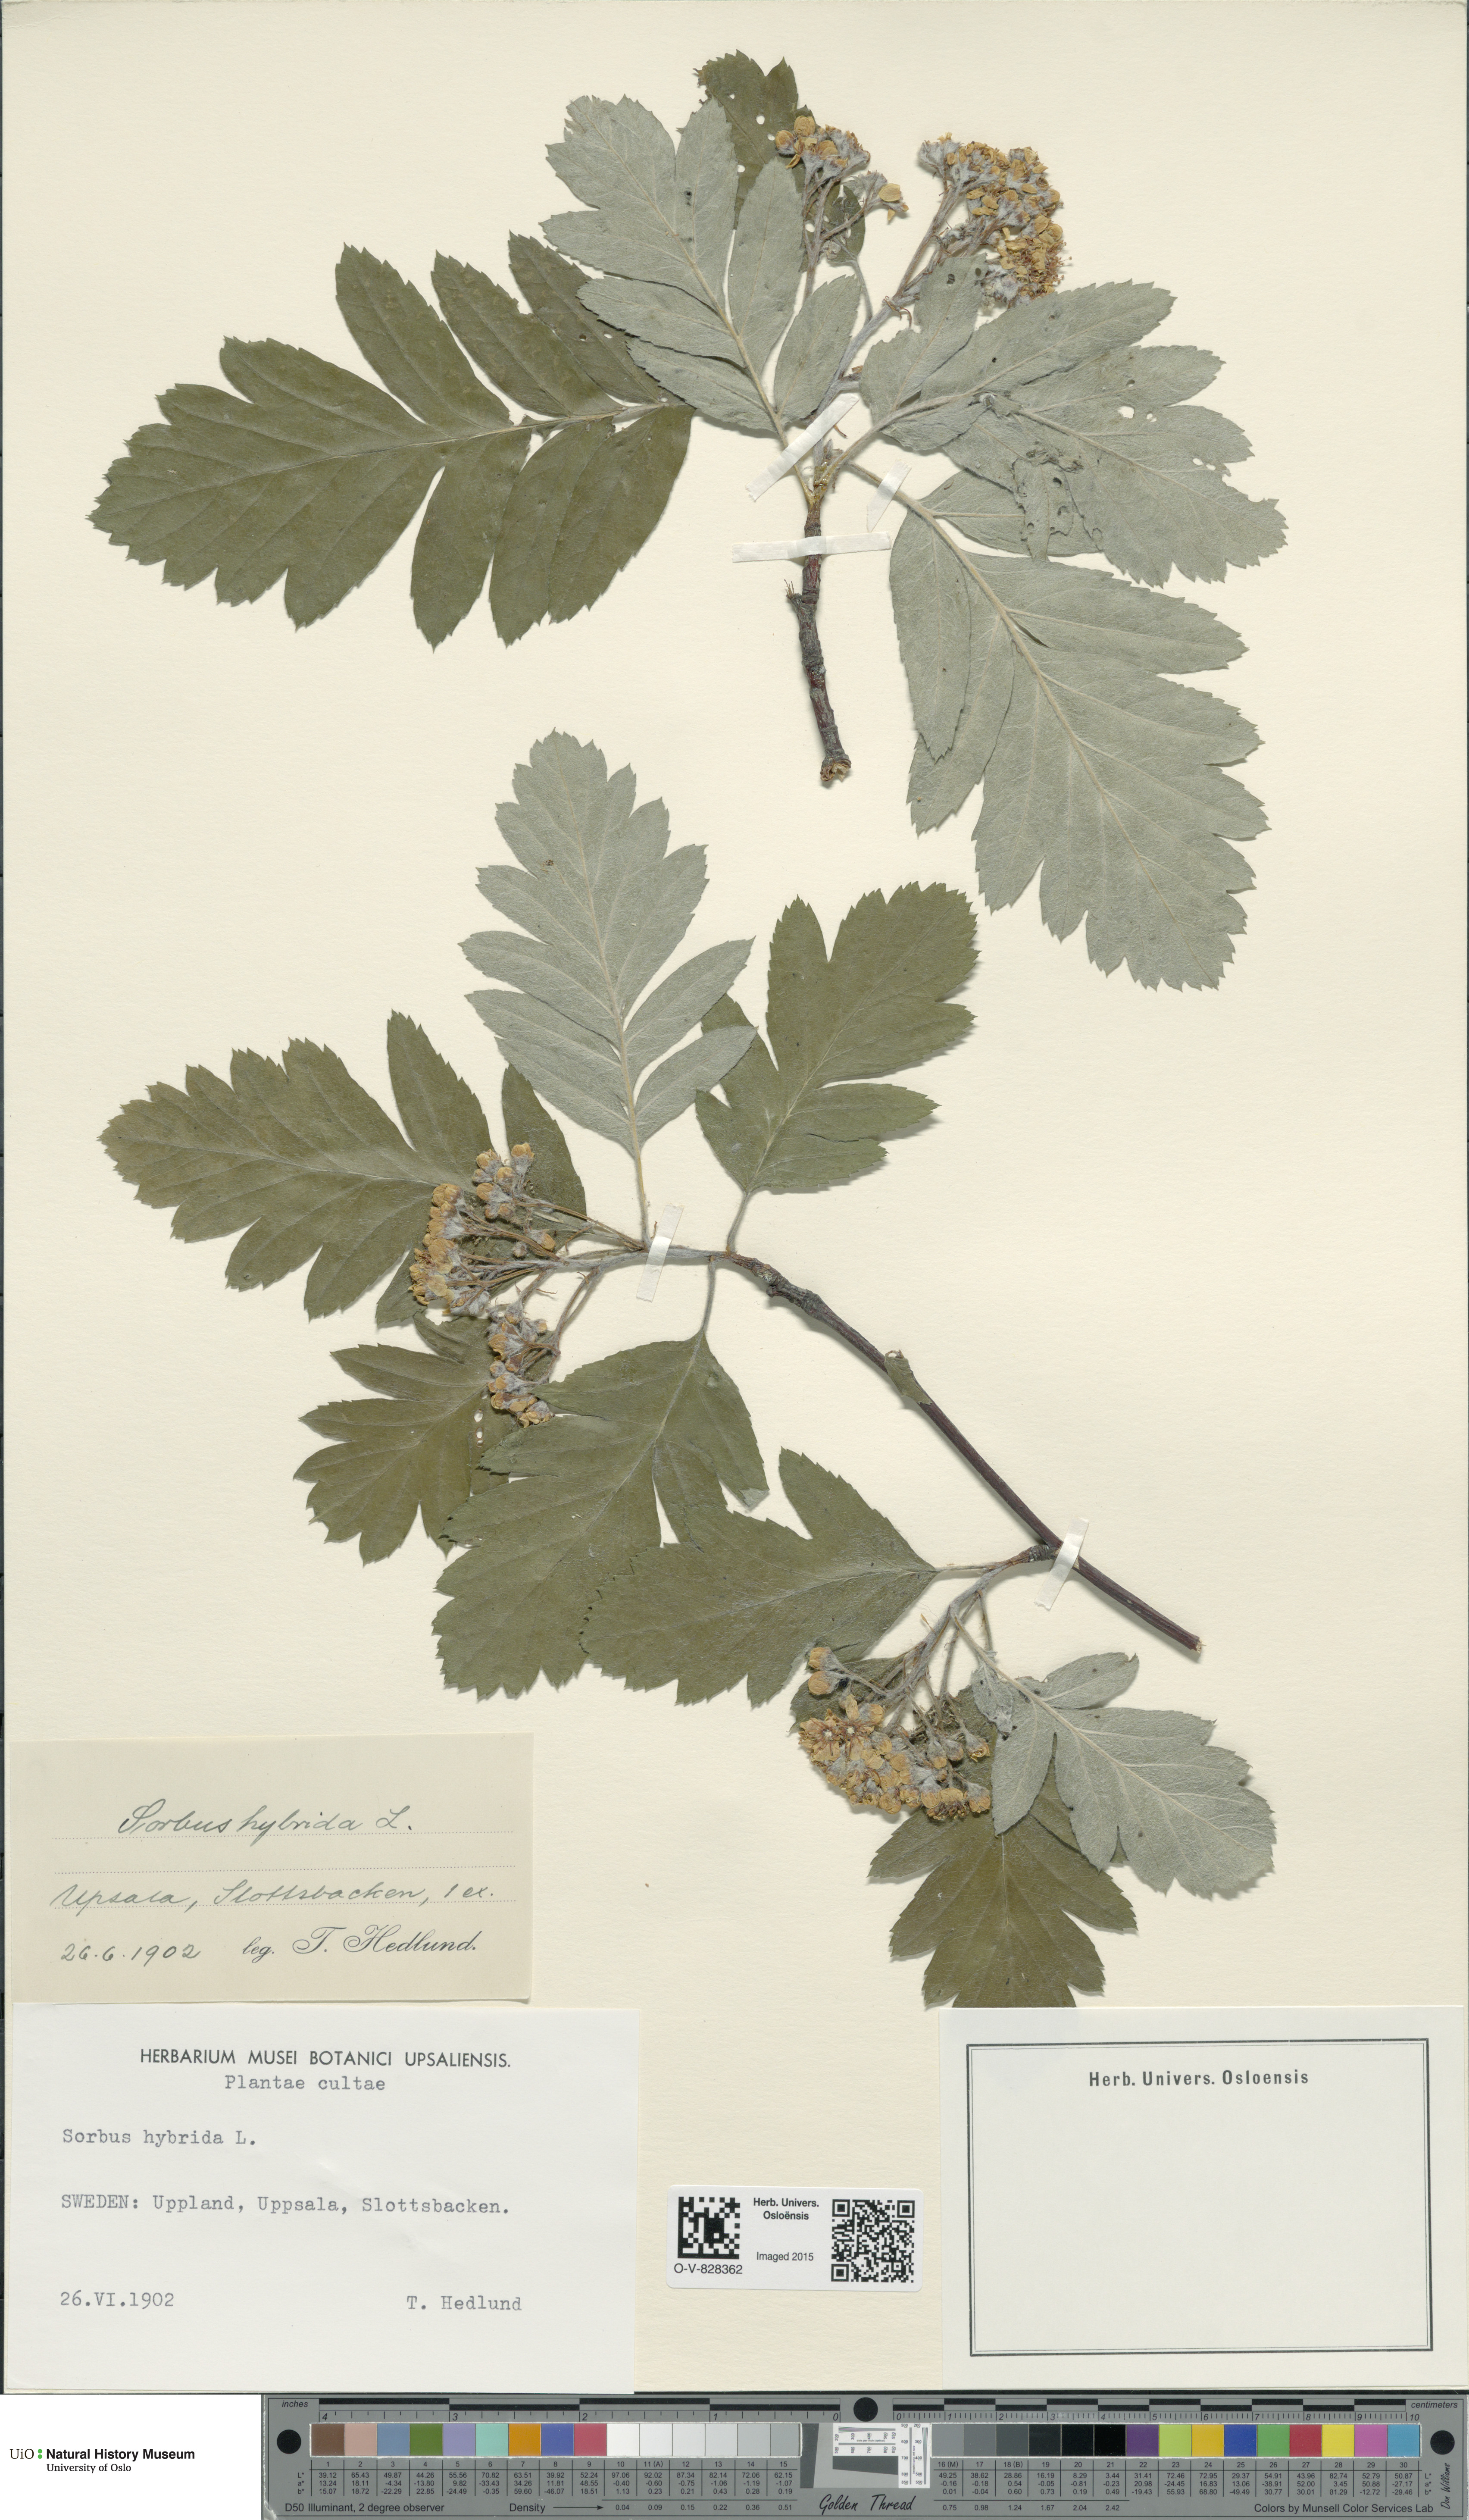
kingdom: Plantae
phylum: Tracheophyta
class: Magnoliopsida
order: Rosales
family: Rosaceae
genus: Hedlundia
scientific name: Hedlundia hybrida
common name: Swedish service-tree
